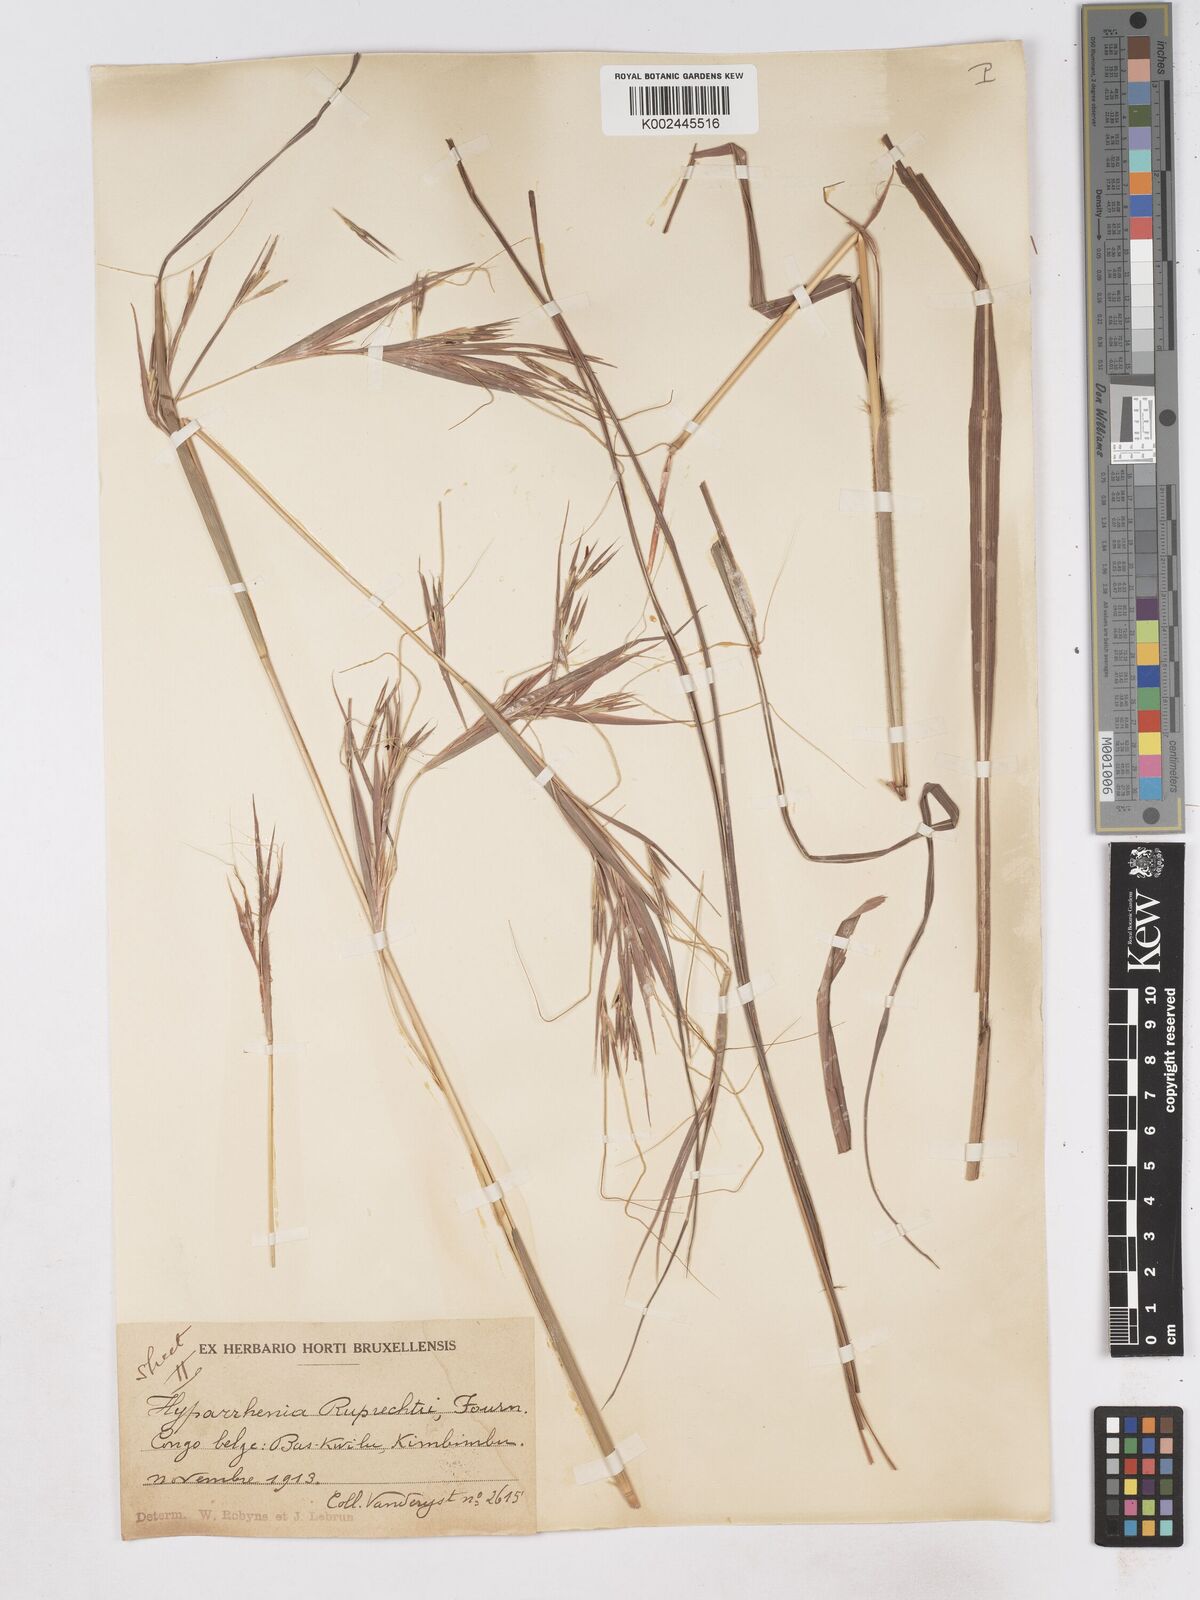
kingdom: Plantae
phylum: Tracheophyta
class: Liliopsida
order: Poales
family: Poaceae
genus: Hyperthelia
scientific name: Hyperthelia dissoluta
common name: Yellow thatching grass
